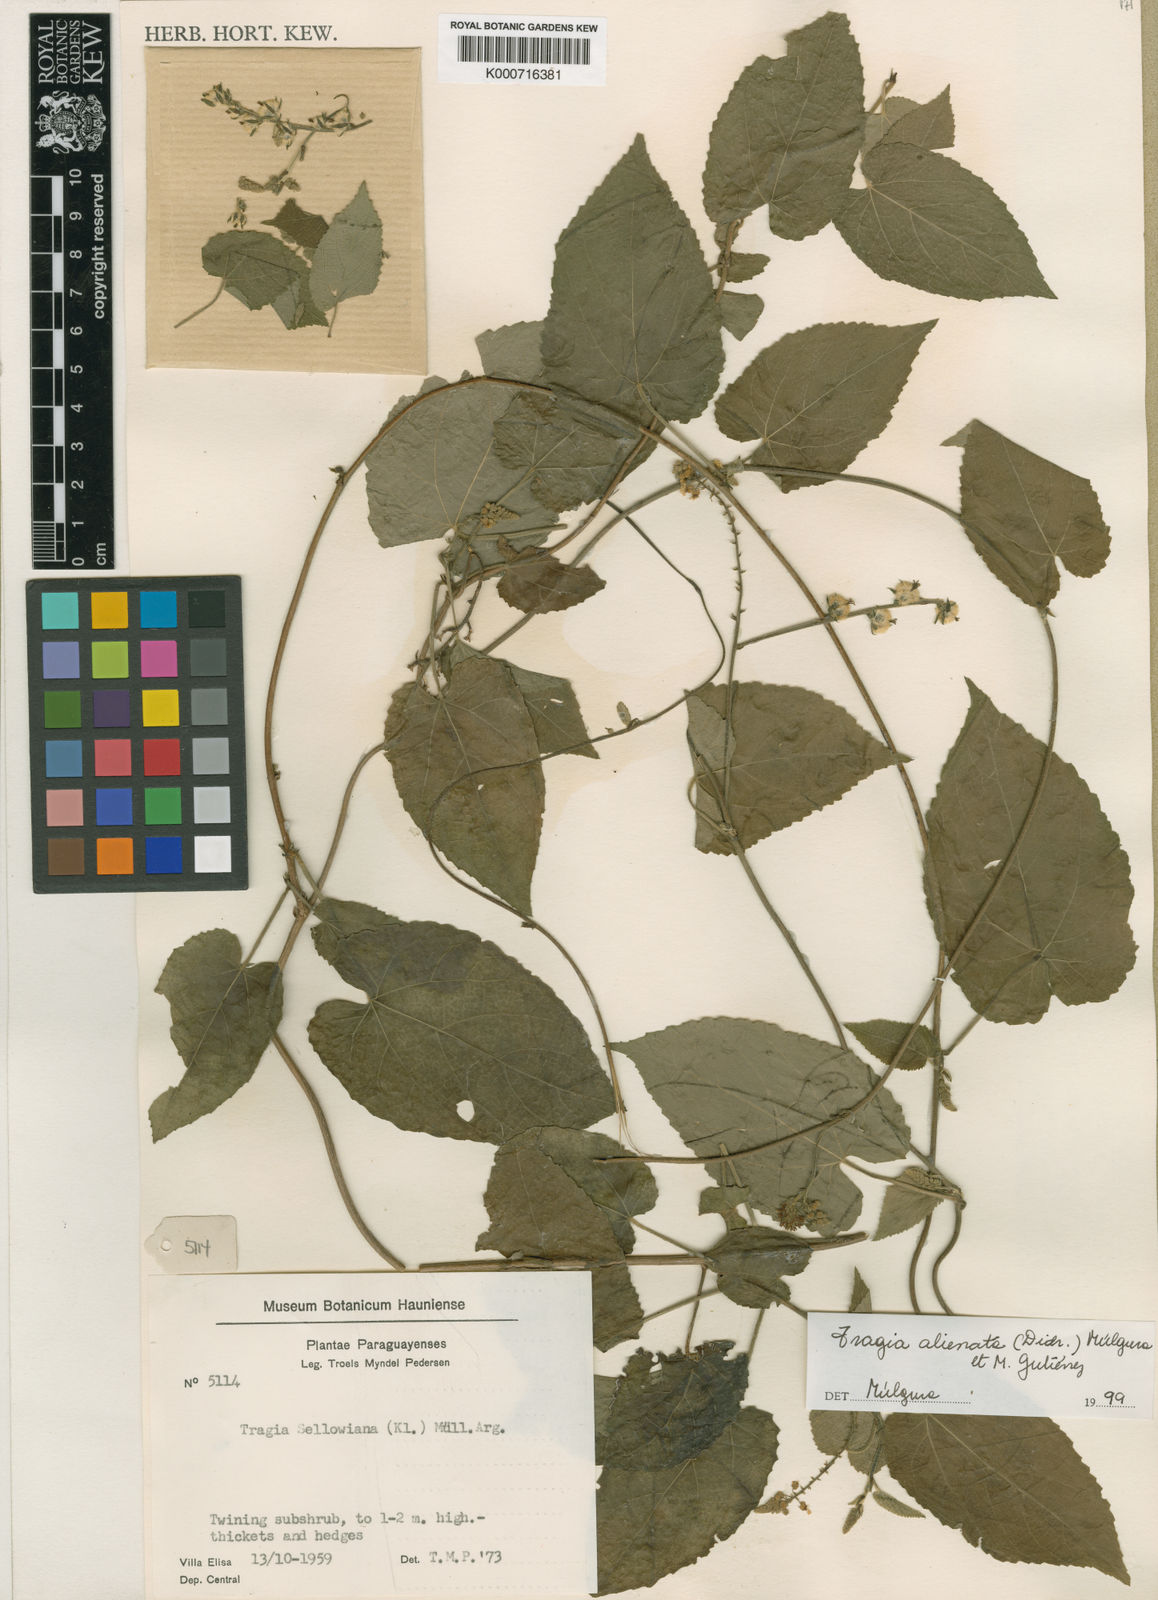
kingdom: Plantae
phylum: Tracheophyta
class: Magnoliopsida
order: Malpighiales
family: Euphorbiaceae
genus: Bia
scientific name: Bia alienata
